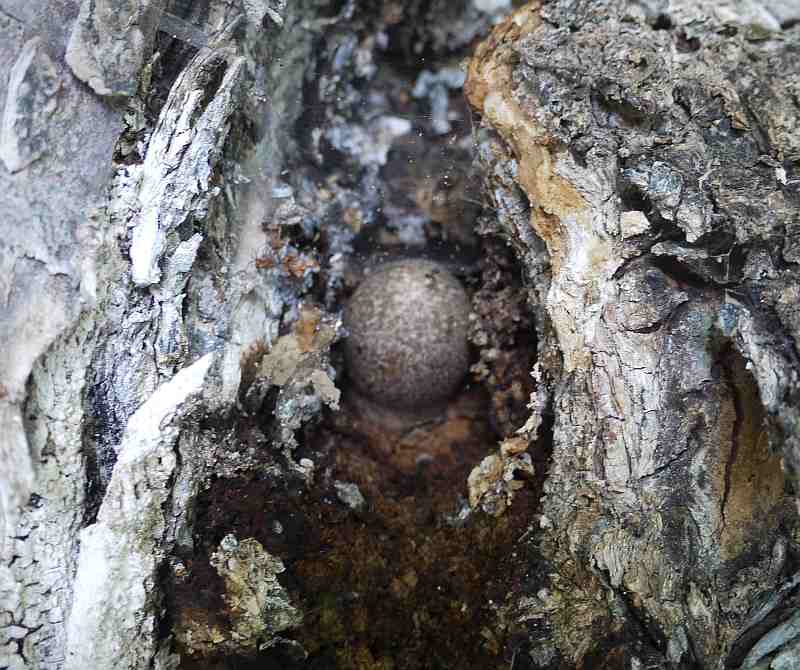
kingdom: Fungi
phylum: Basidiomycota
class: Agaricomycetes
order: Agaricales
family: Pluteaceae
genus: Volvariella
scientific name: Volvariella bombycina
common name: silkehåret posesvamp
